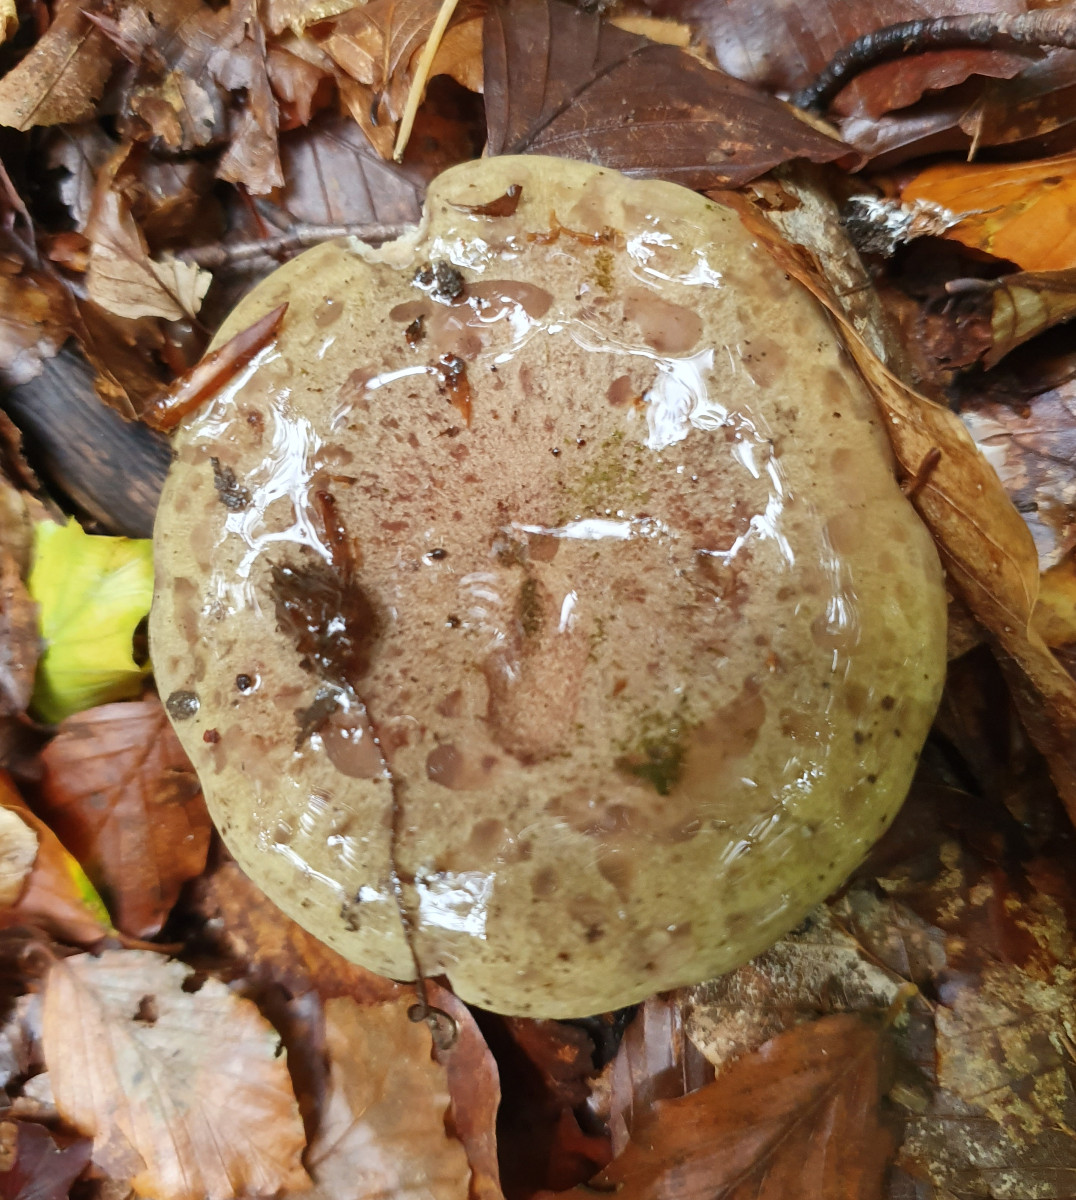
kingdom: Fungi
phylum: Basidiomycota
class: Agaricomycetes
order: Russulales
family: Russulaceae
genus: Lactarius
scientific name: Lactarius blennius
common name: dråbeplettet mælkehat
